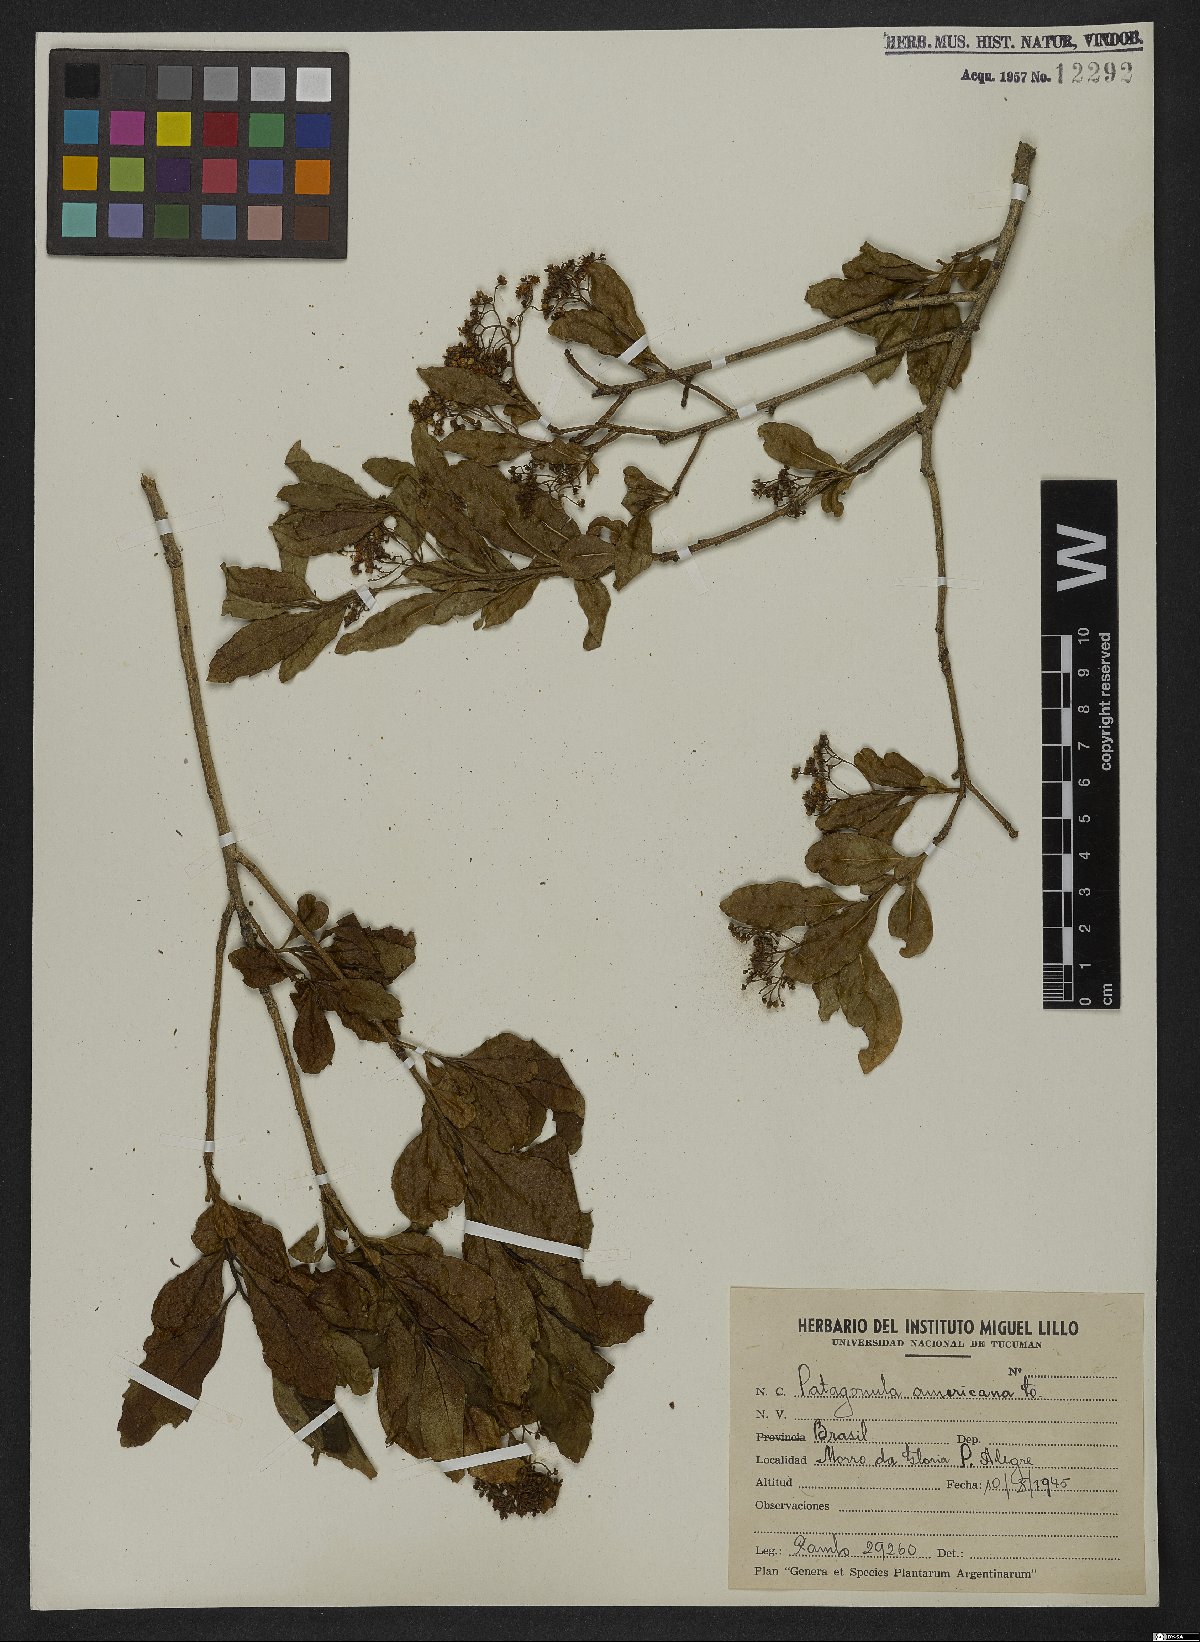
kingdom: Plantae
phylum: Tracheophyta
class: Magnoliopsida
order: Boraginales
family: Cordiaceae
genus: Cordia
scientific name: Cordia americana
